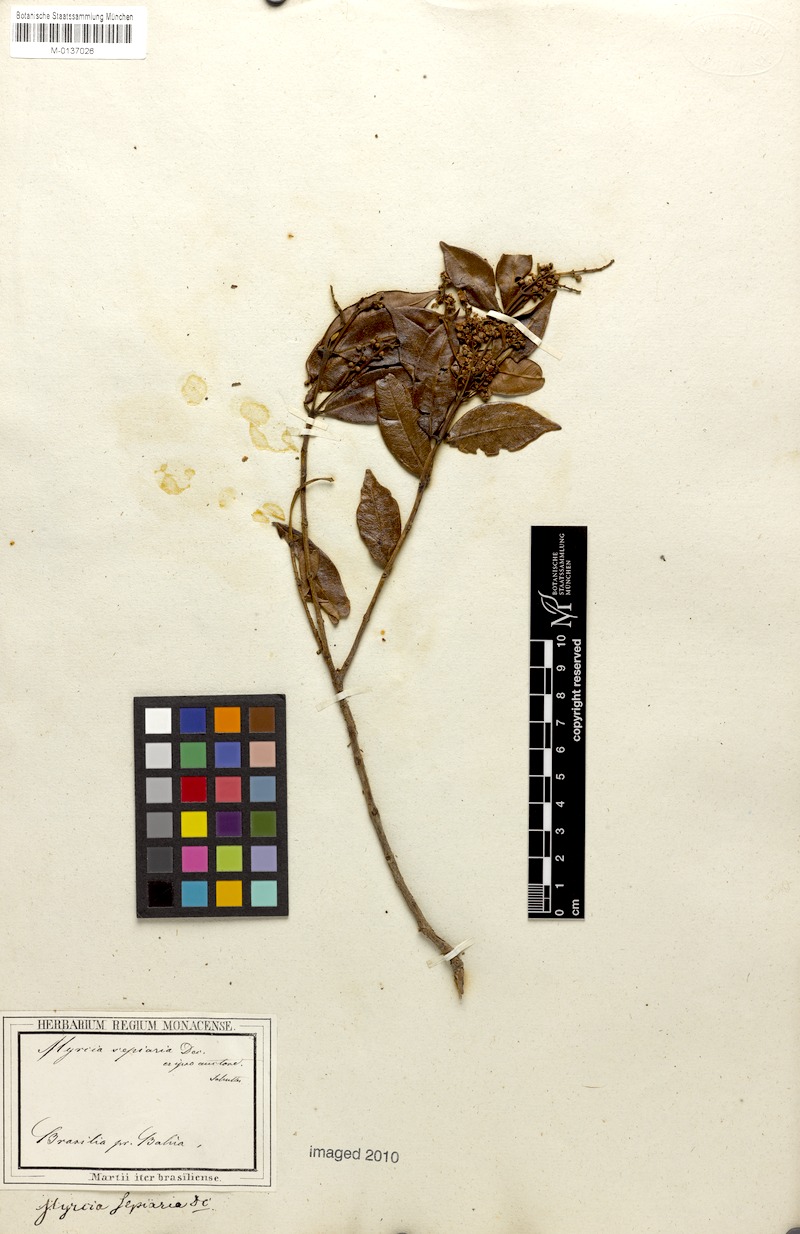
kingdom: Plantae
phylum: Tracheophyta
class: Magnoliopsida
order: Myrtales
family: Myrtaceae
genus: Myrcia
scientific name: Myrcia splendens
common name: Surinam cherry
